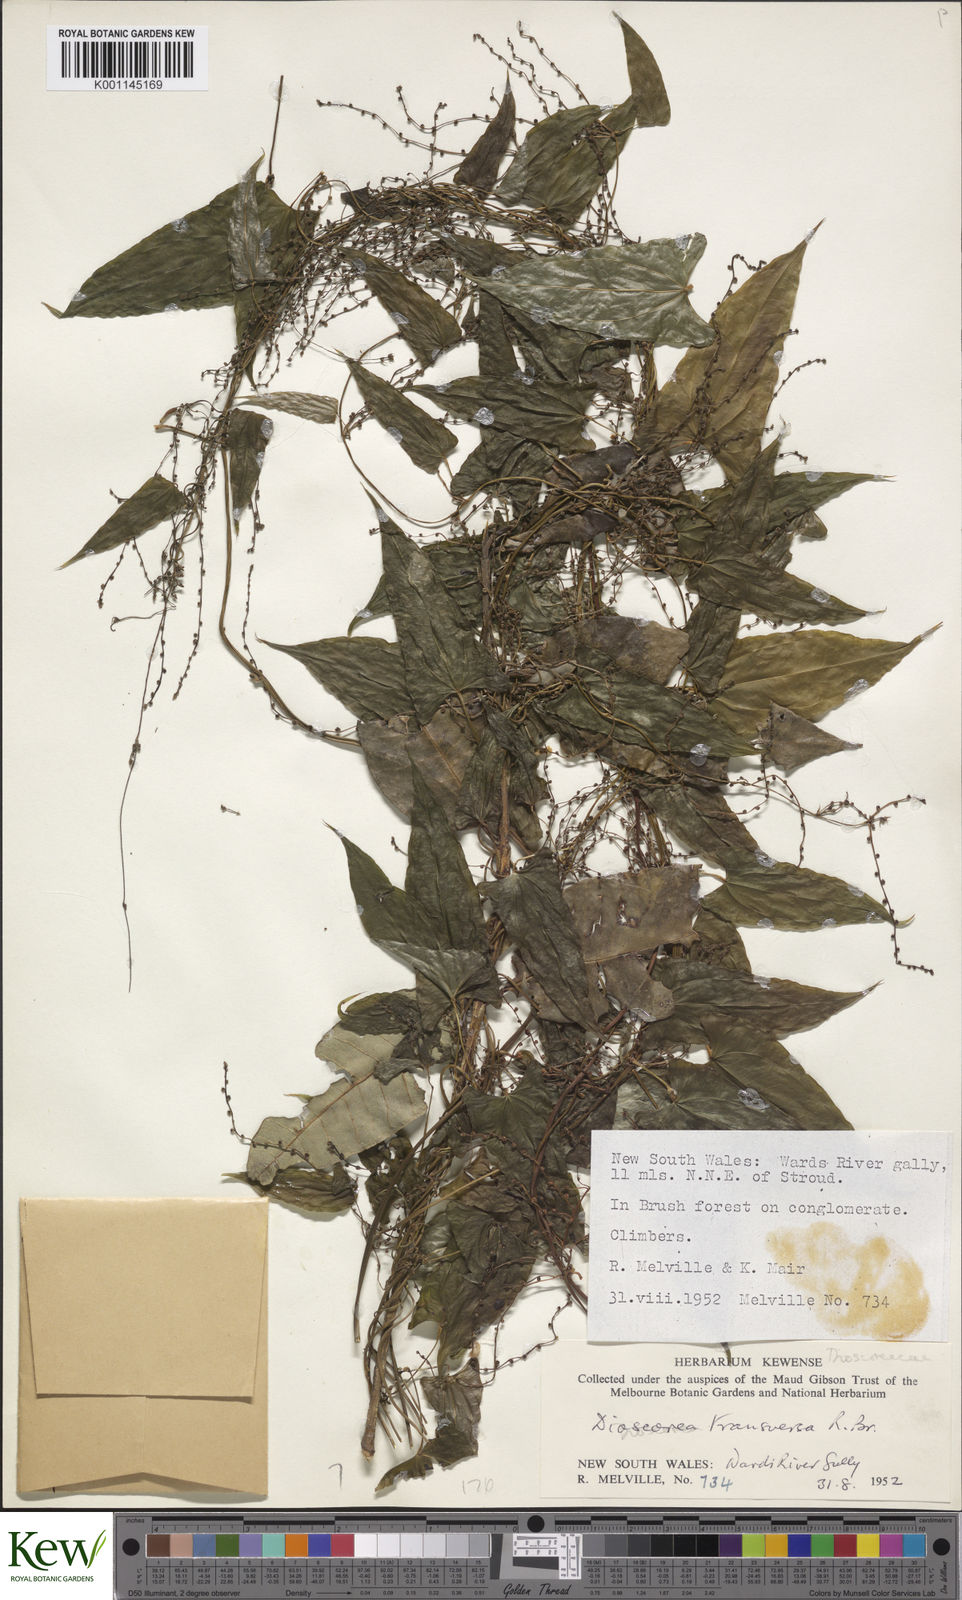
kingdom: Plantae
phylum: Tracheophyta
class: Liliopsida
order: Dioscoreales
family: Dioscoreaceae
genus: Dioscorea
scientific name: Dioscorea transversa
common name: Long yam
